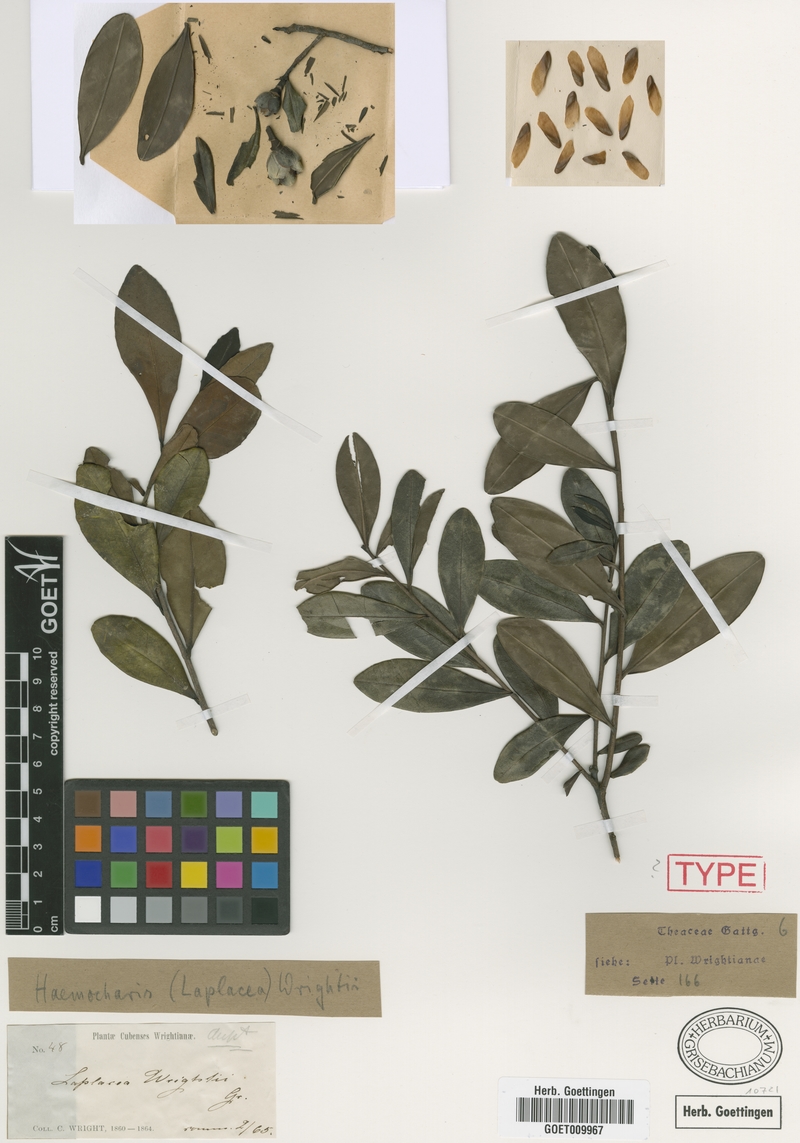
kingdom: Plantae
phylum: Tracheophyta
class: Magnoliopsida
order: Ericales
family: Theaceae
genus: Gordonia
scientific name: Gordonia wrightii
